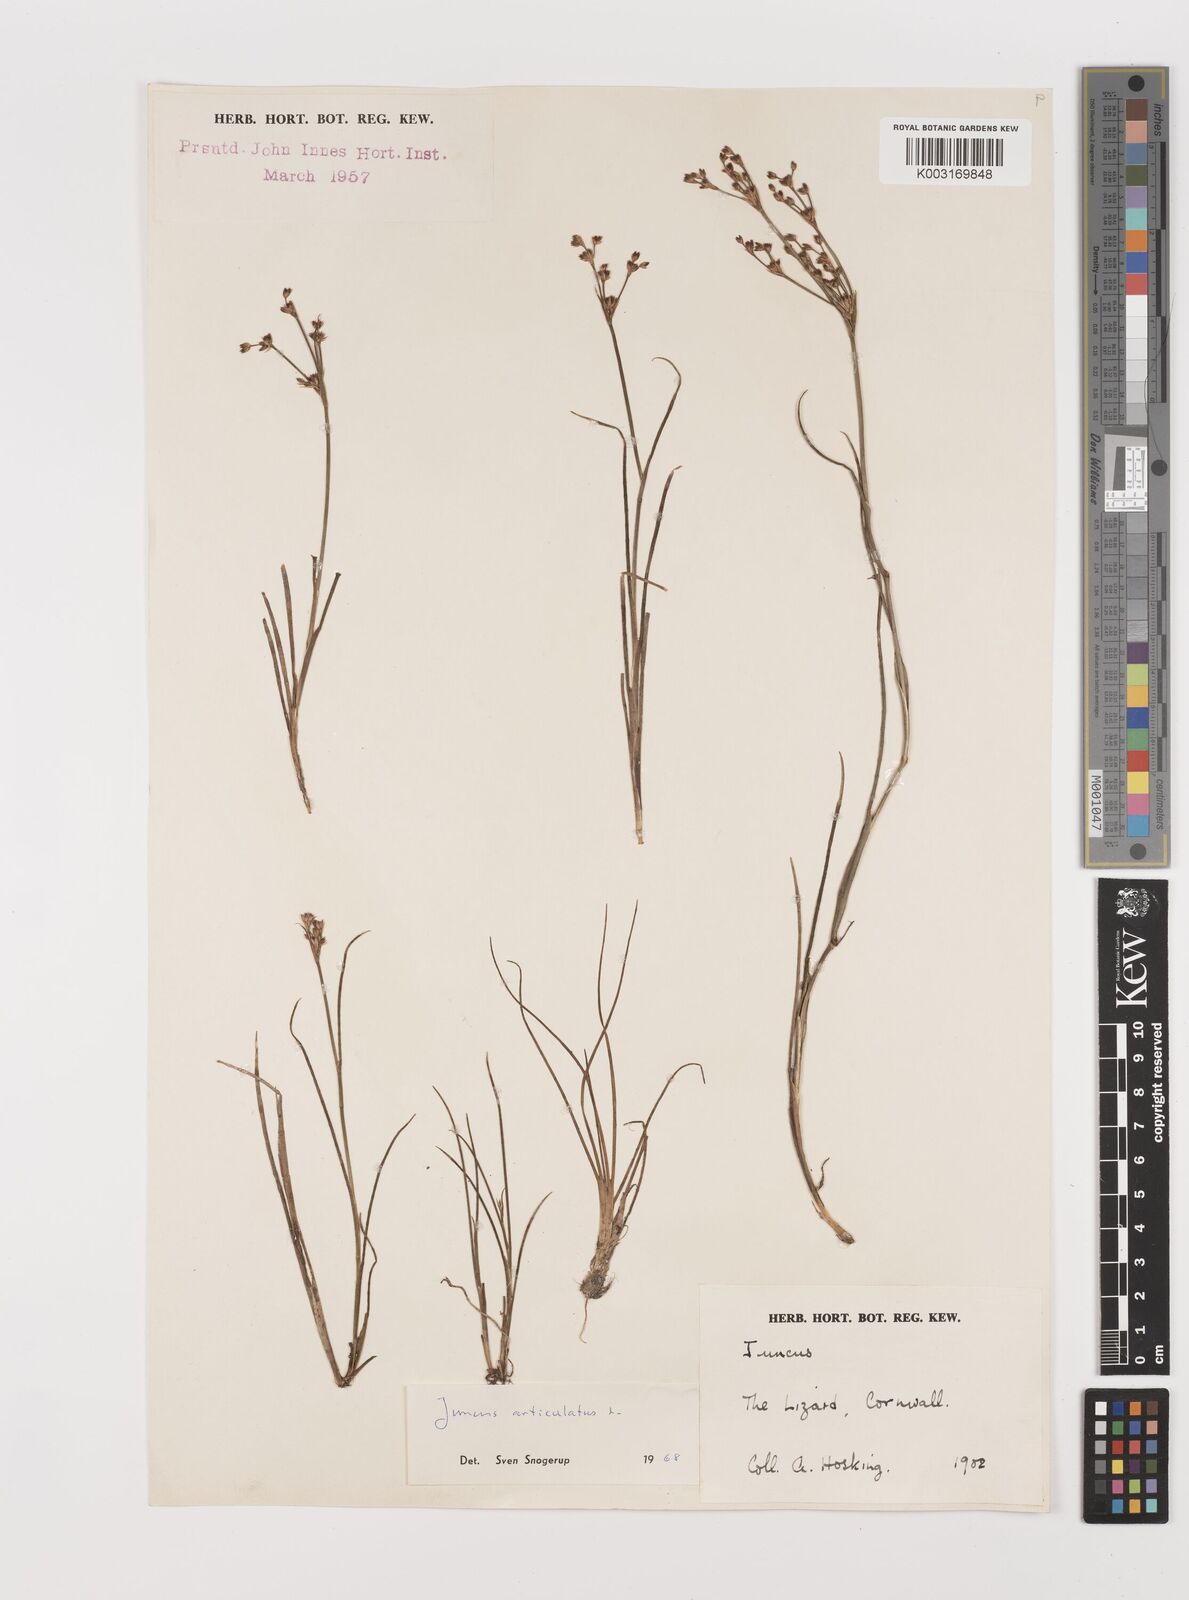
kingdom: Plantae
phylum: Tracheophyta
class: Liliopsida
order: Poales
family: Juncaceae
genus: Juncus
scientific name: Juncus articulatus
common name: Jointed rush
